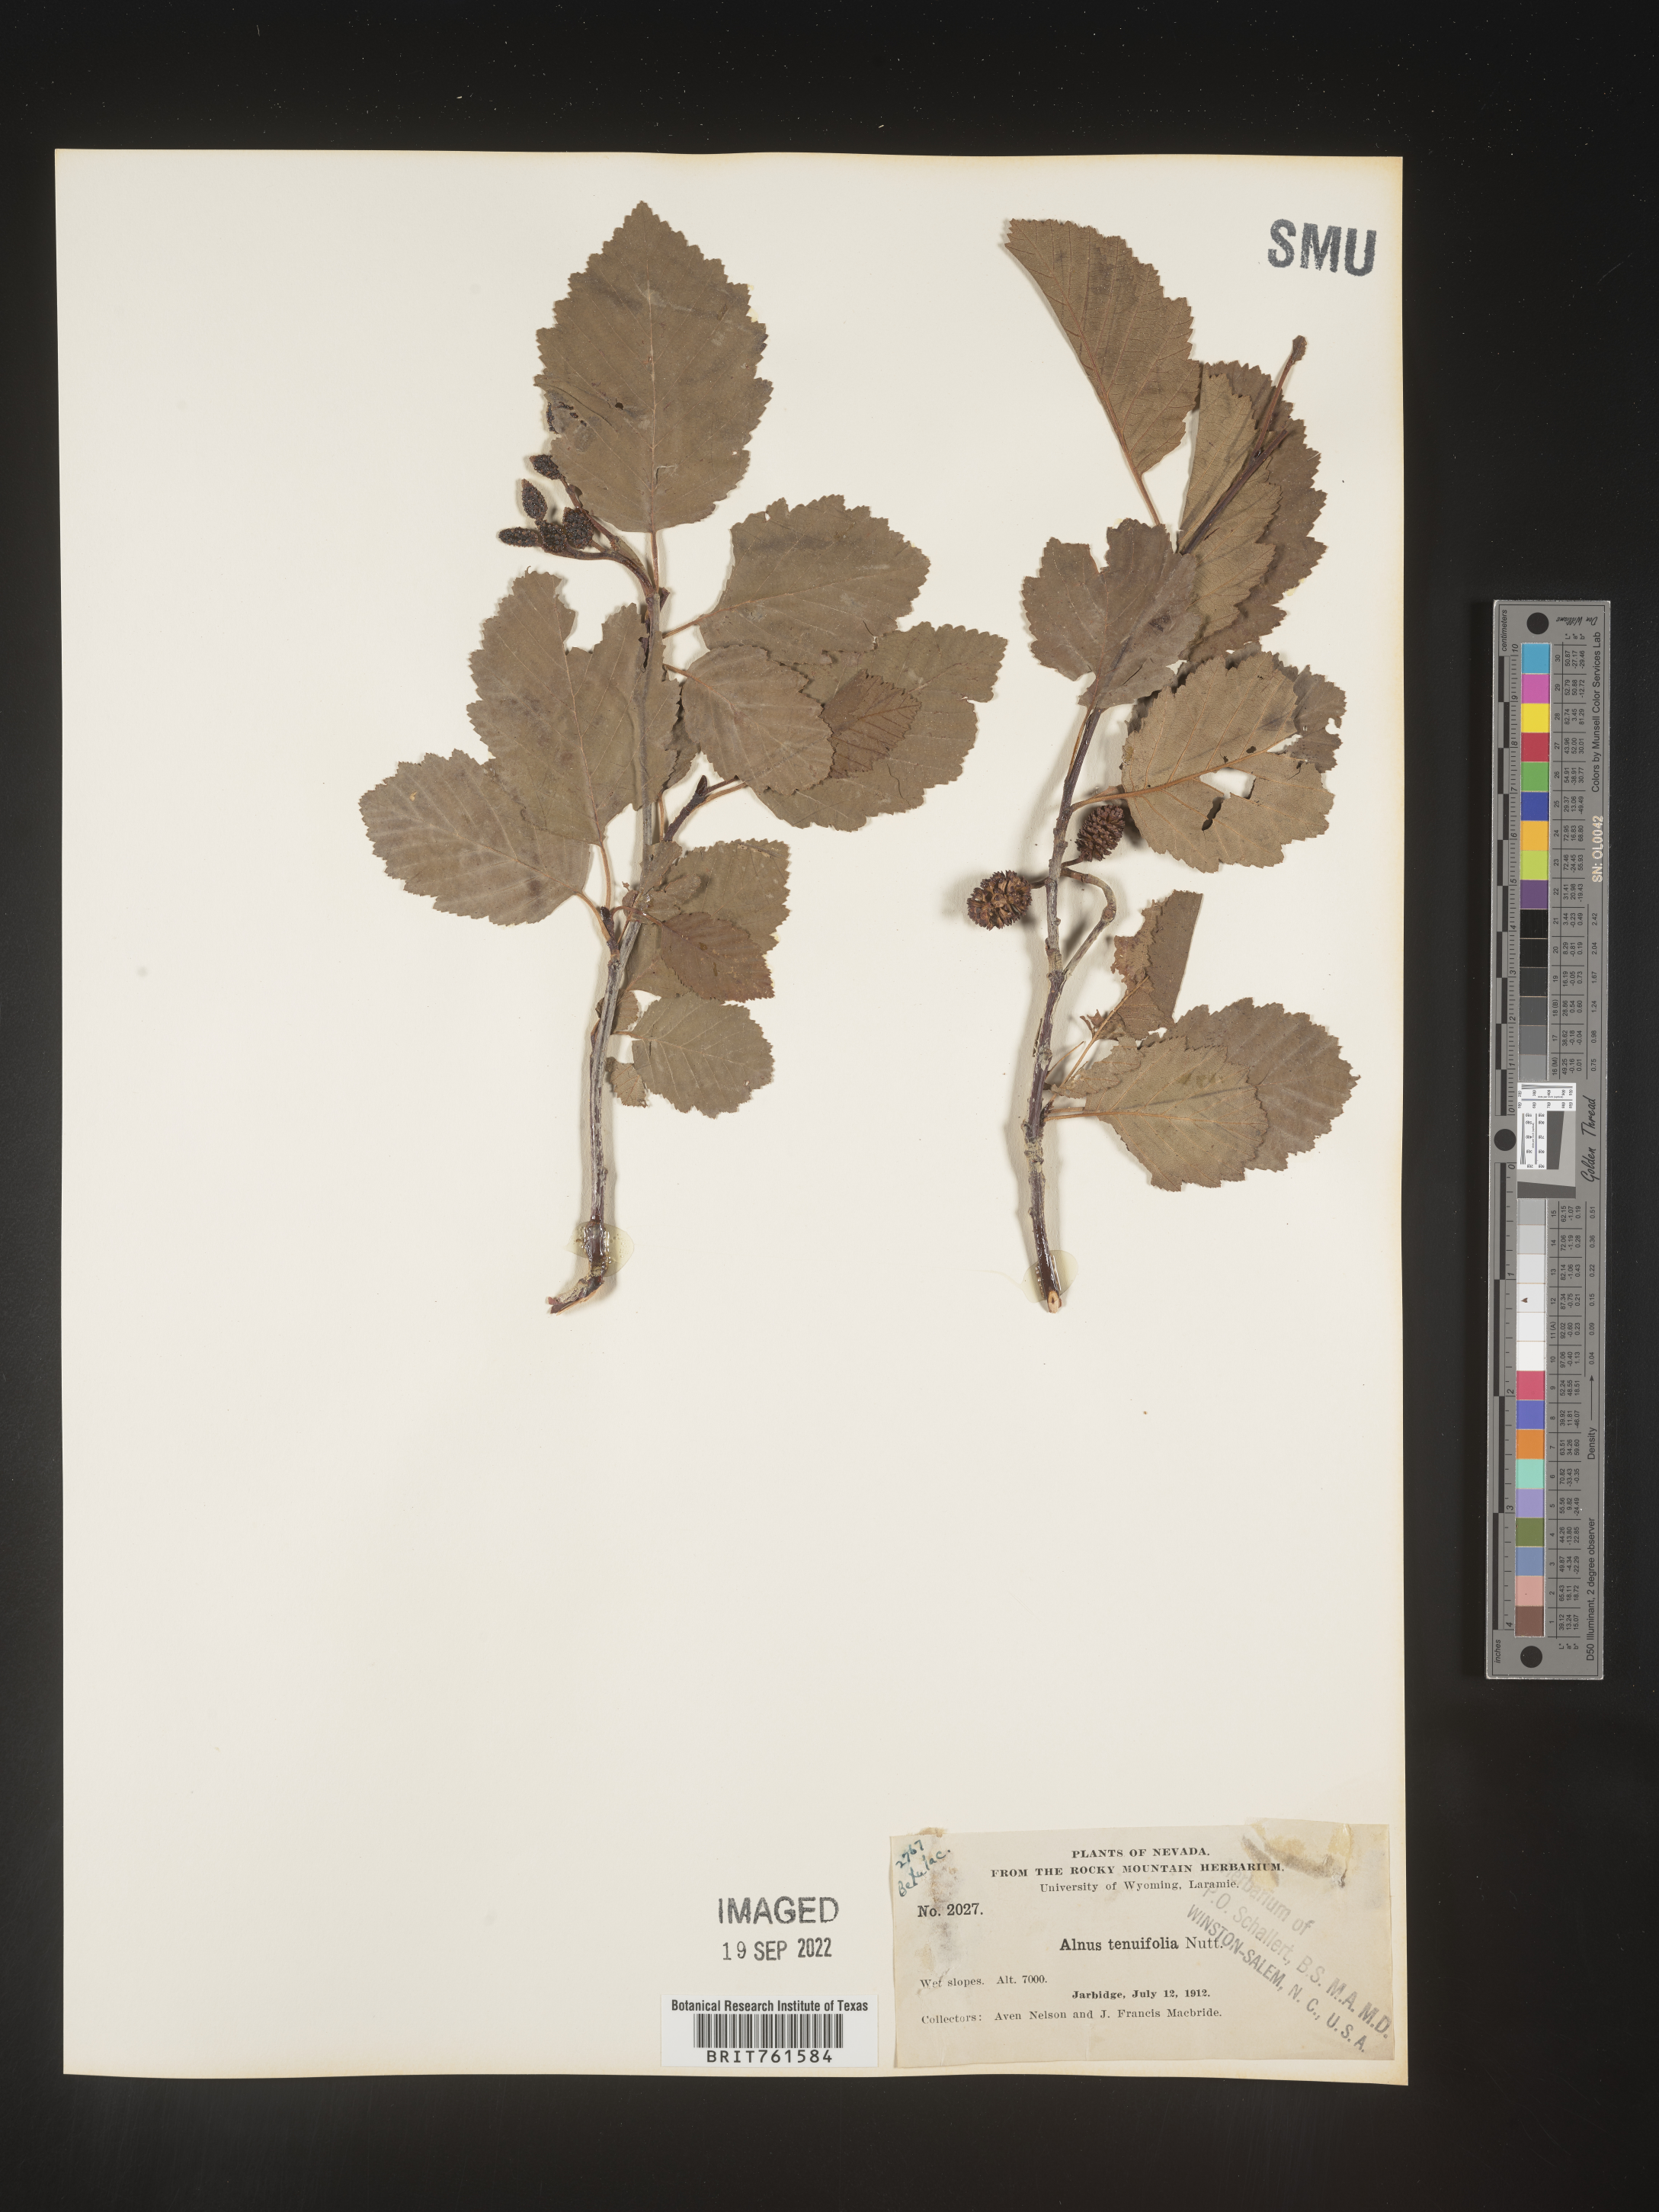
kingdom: Plantae
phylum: Tracheophyta
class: Magnoliopsida
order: Fagales
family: Betulaceae
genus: Alnus
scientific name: Alnus incana
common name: Grey alder
